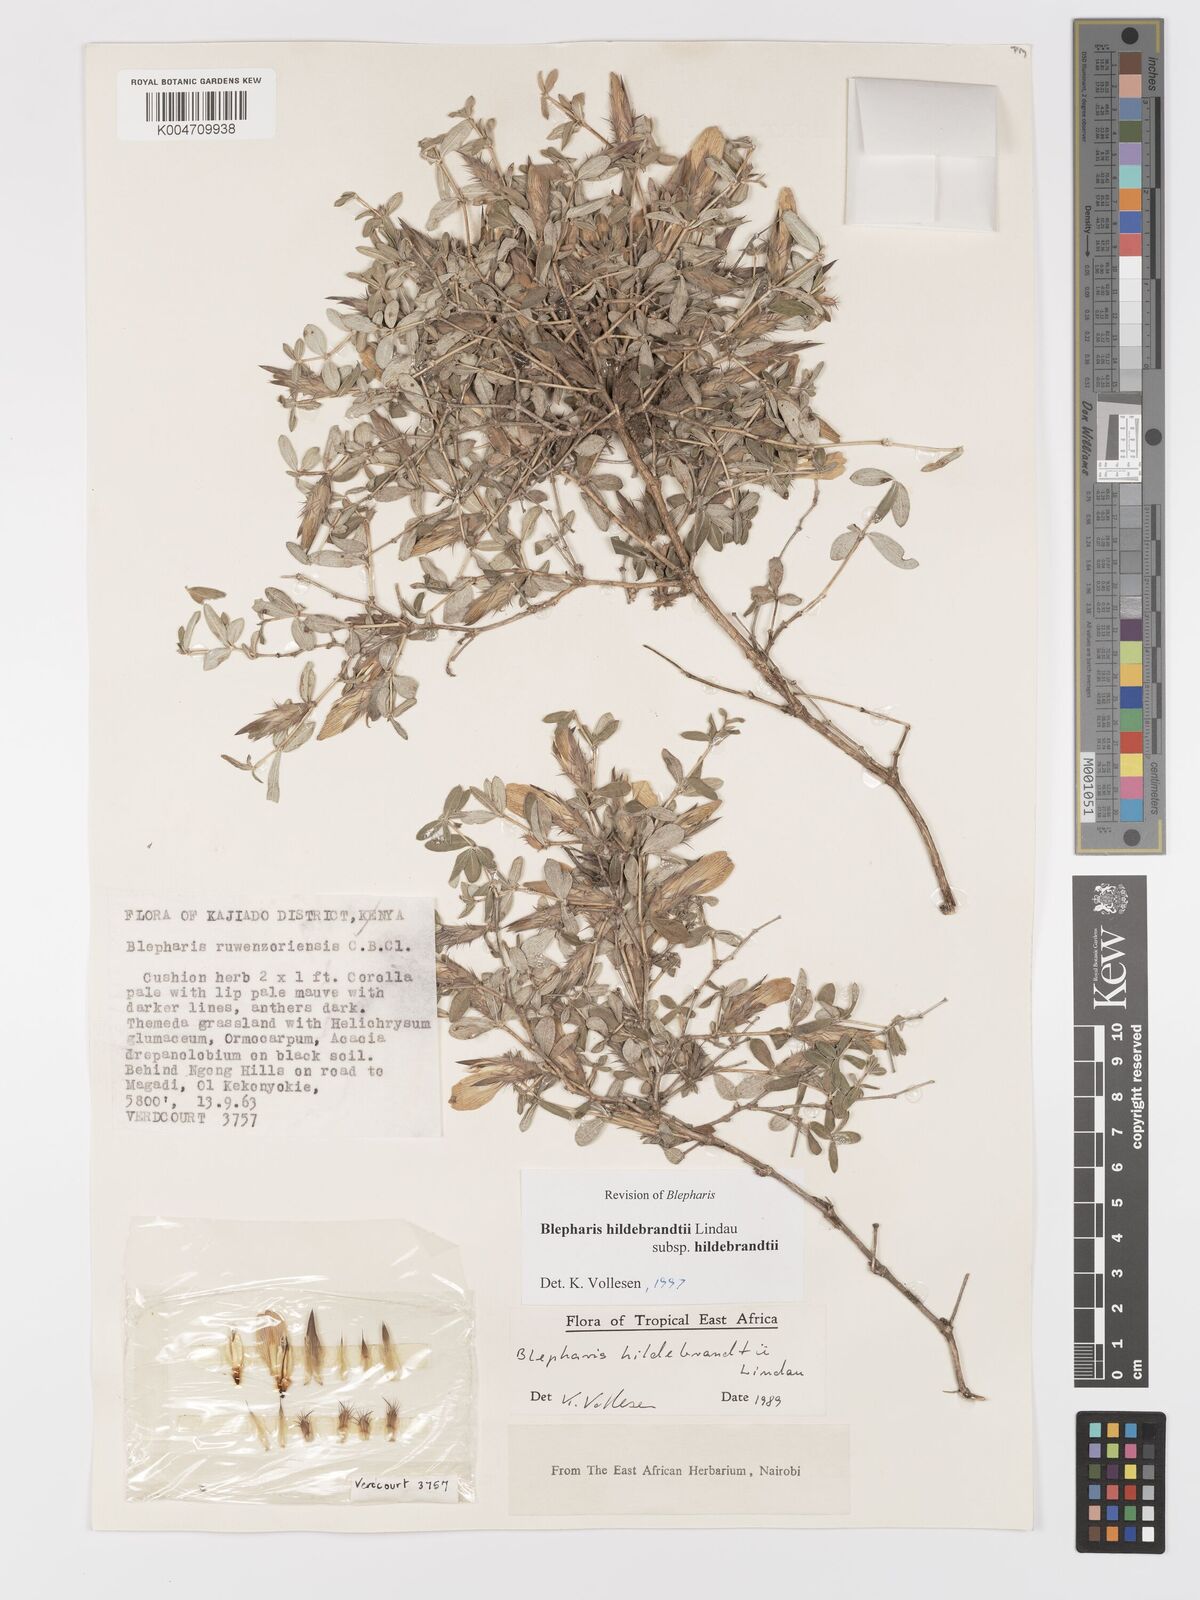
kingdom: Plantae
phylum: Tracheophyta
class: Magnoliopsida
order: Lamiales
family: Acanthaceae
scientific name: Acanthaceae
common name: Acanthaceae
